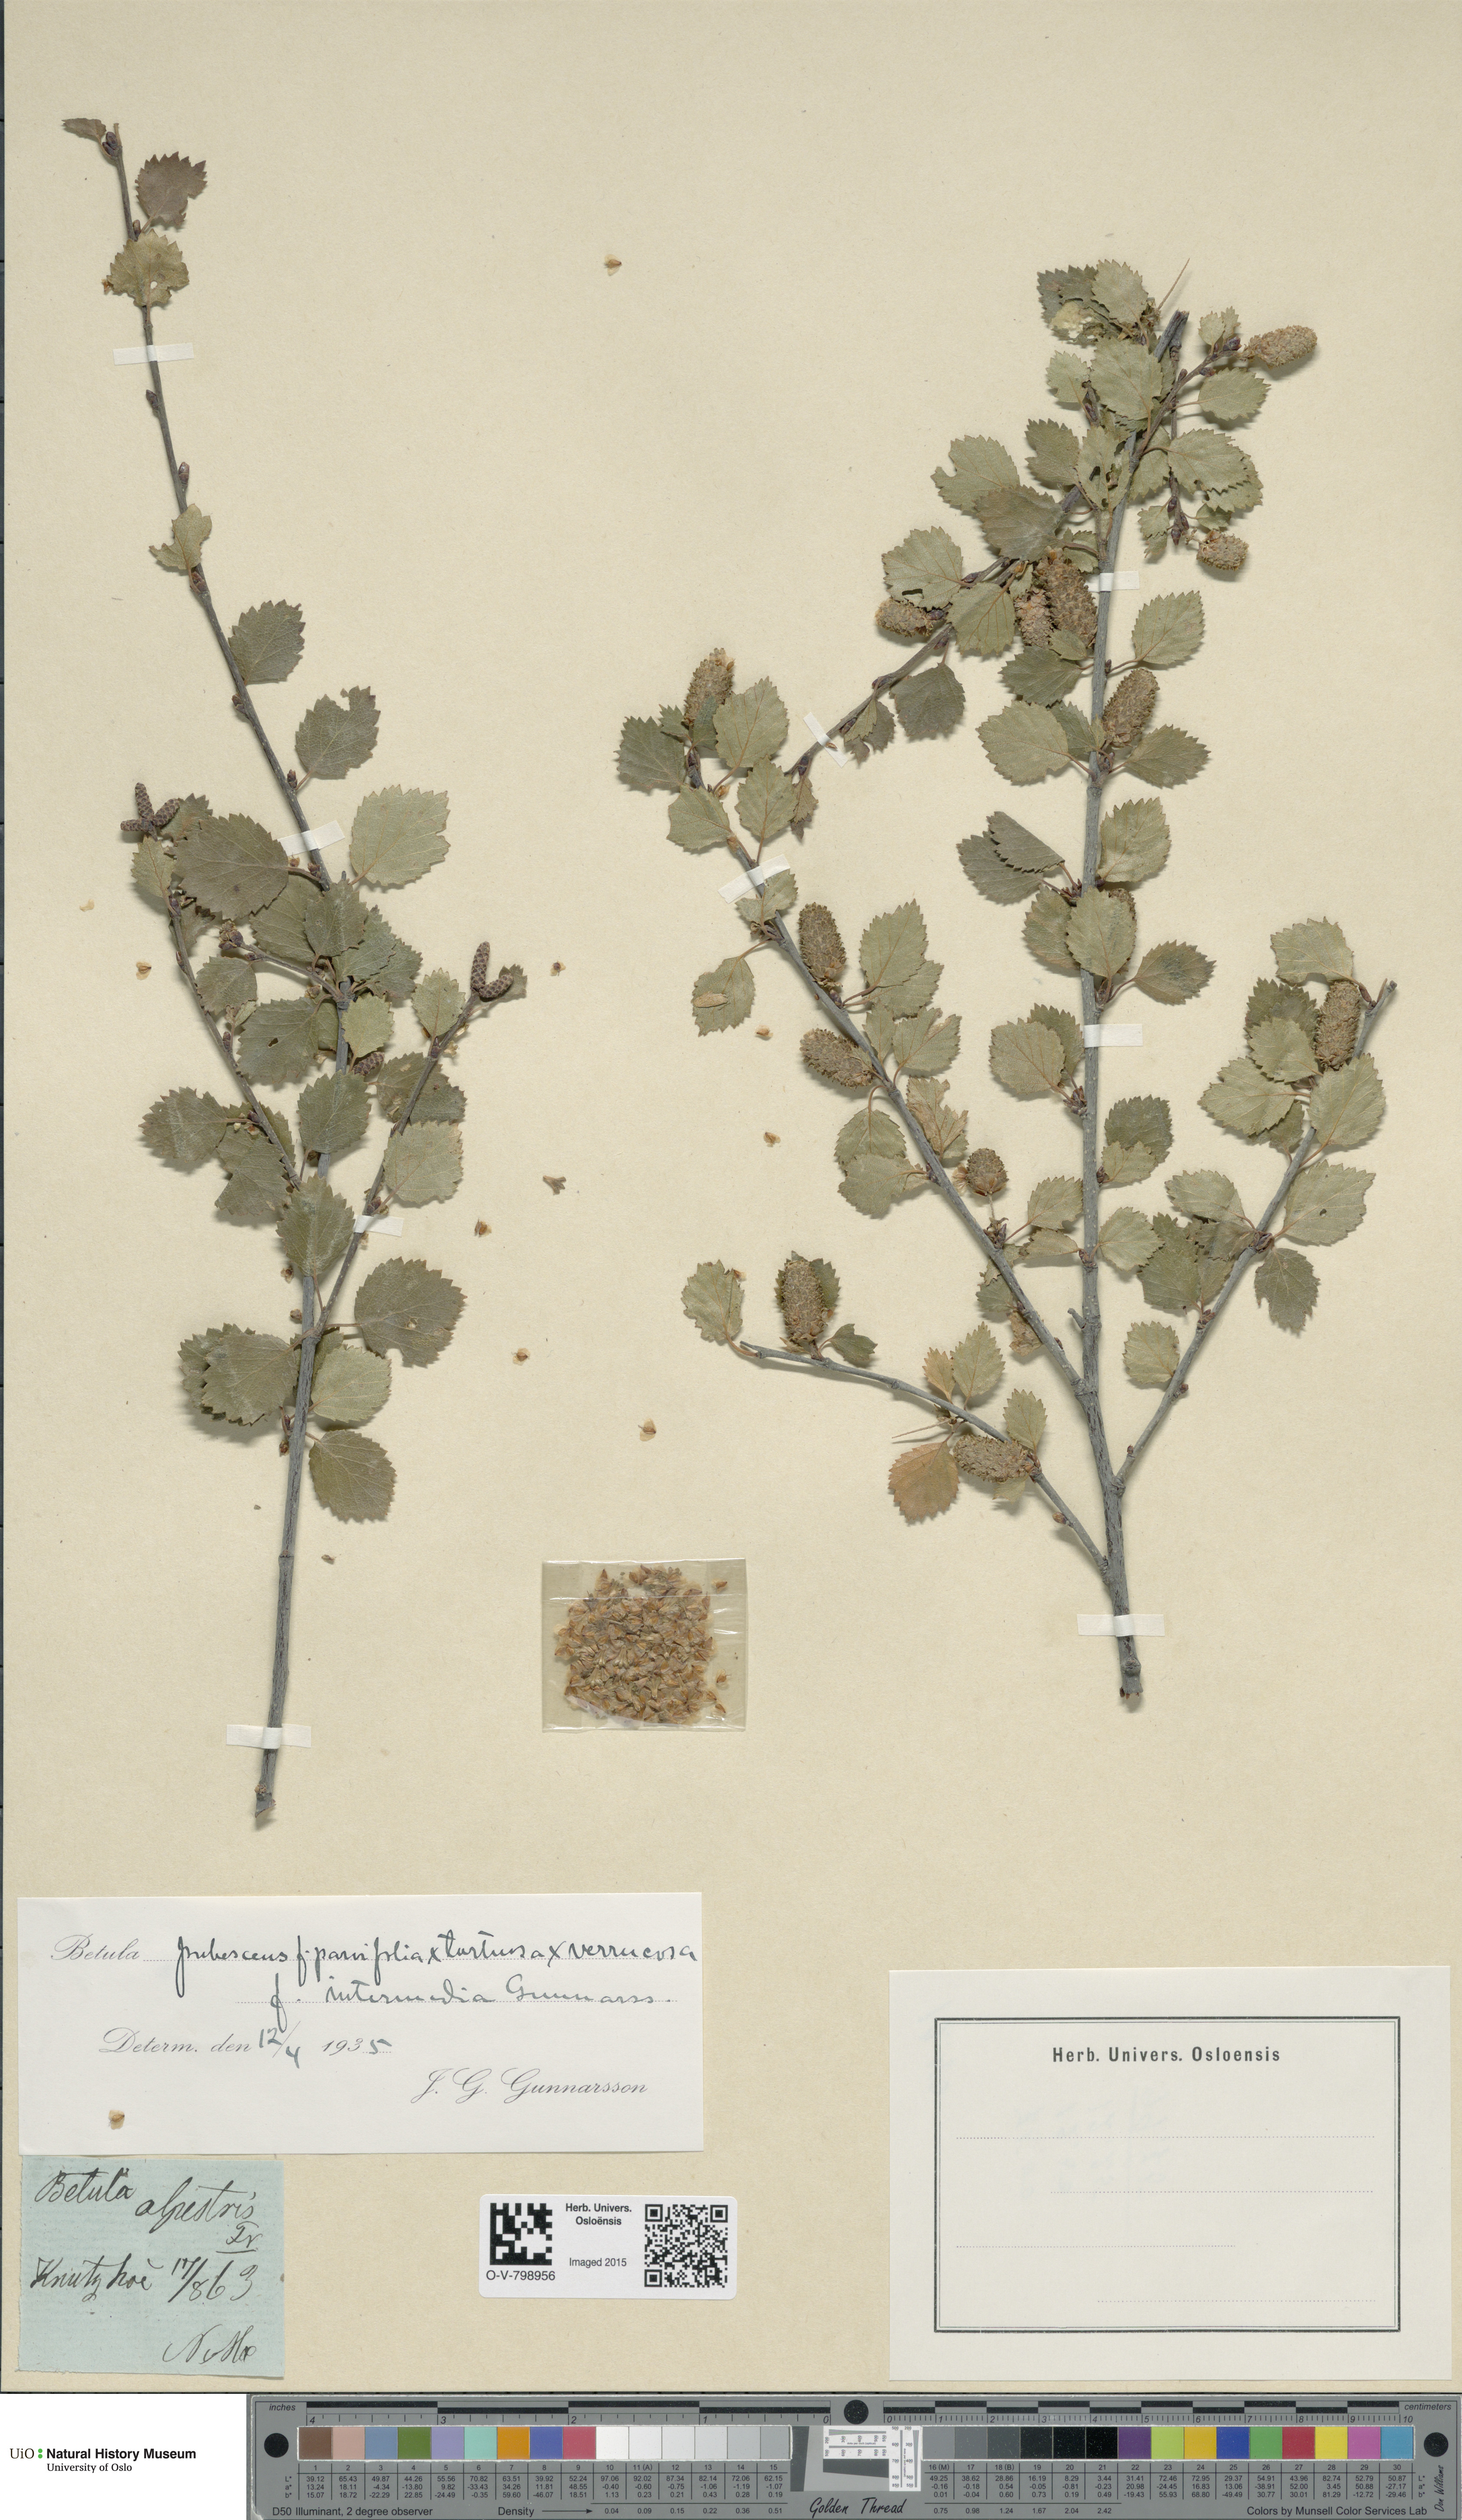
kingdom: Plantae
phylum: Tracheophyta
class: Magnoliopsida
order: Fagales
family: Betulaceae
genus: Betula
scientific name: Betula pubescens
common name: Downy birch
